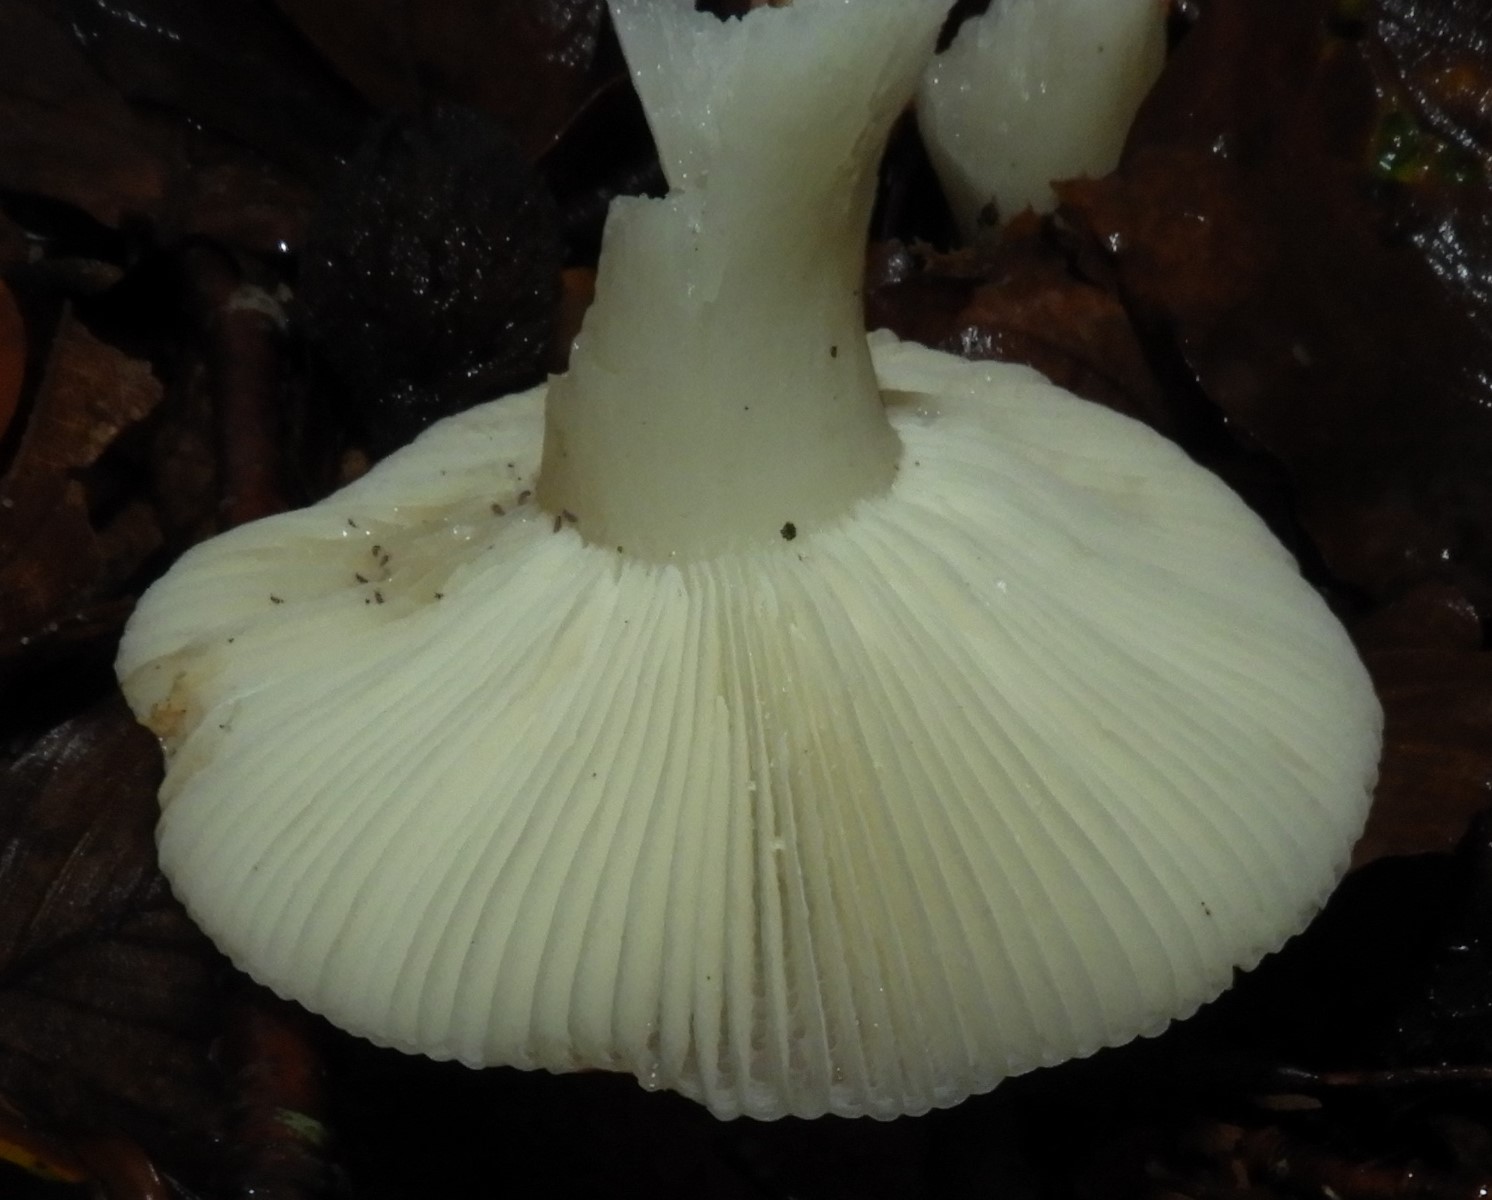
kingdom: Fungi
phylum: Basidiomycota
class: Agaricomycetes
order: Russulales
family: Russulaceae
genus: Russula
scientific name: Russula
